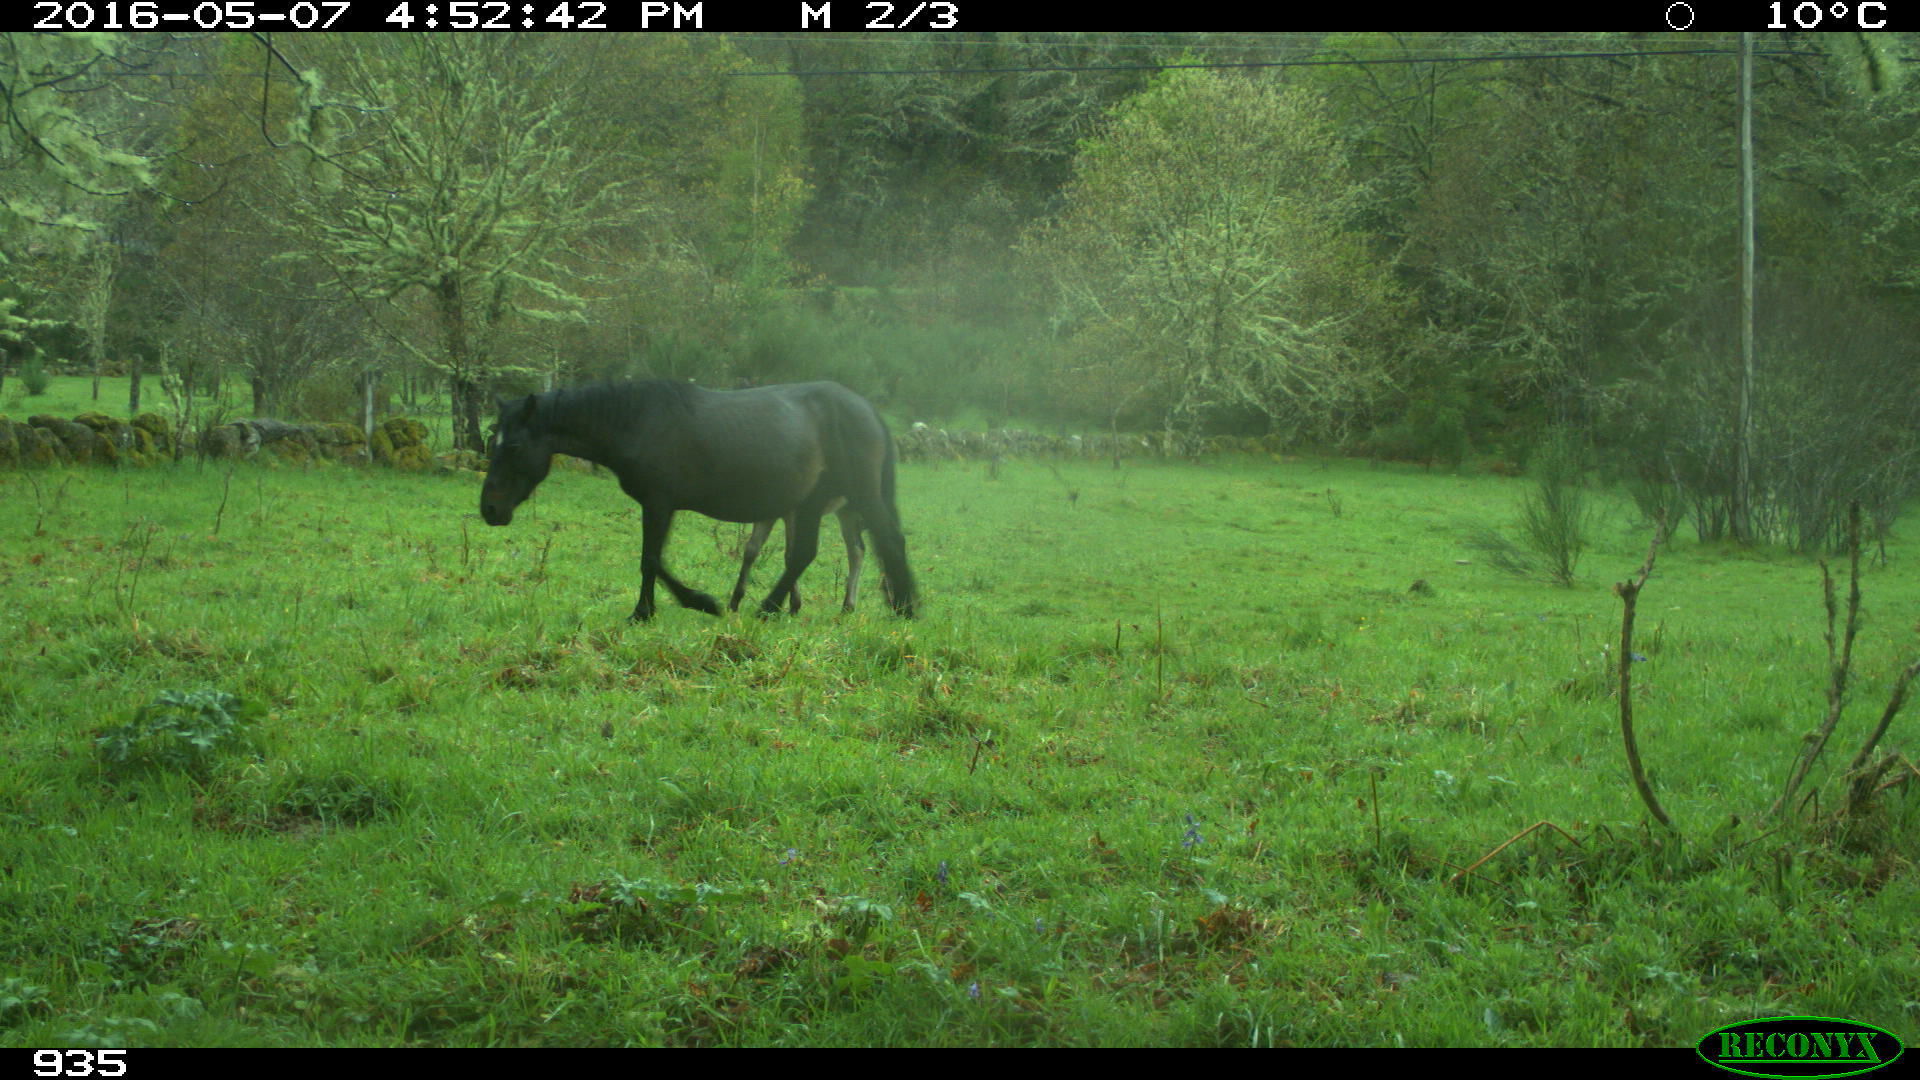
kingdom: Animalia
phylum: Chordata
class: Mammalia
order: Perissodactyla
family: Equidae
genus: Equus
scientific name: Equus caballus
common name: Horse
